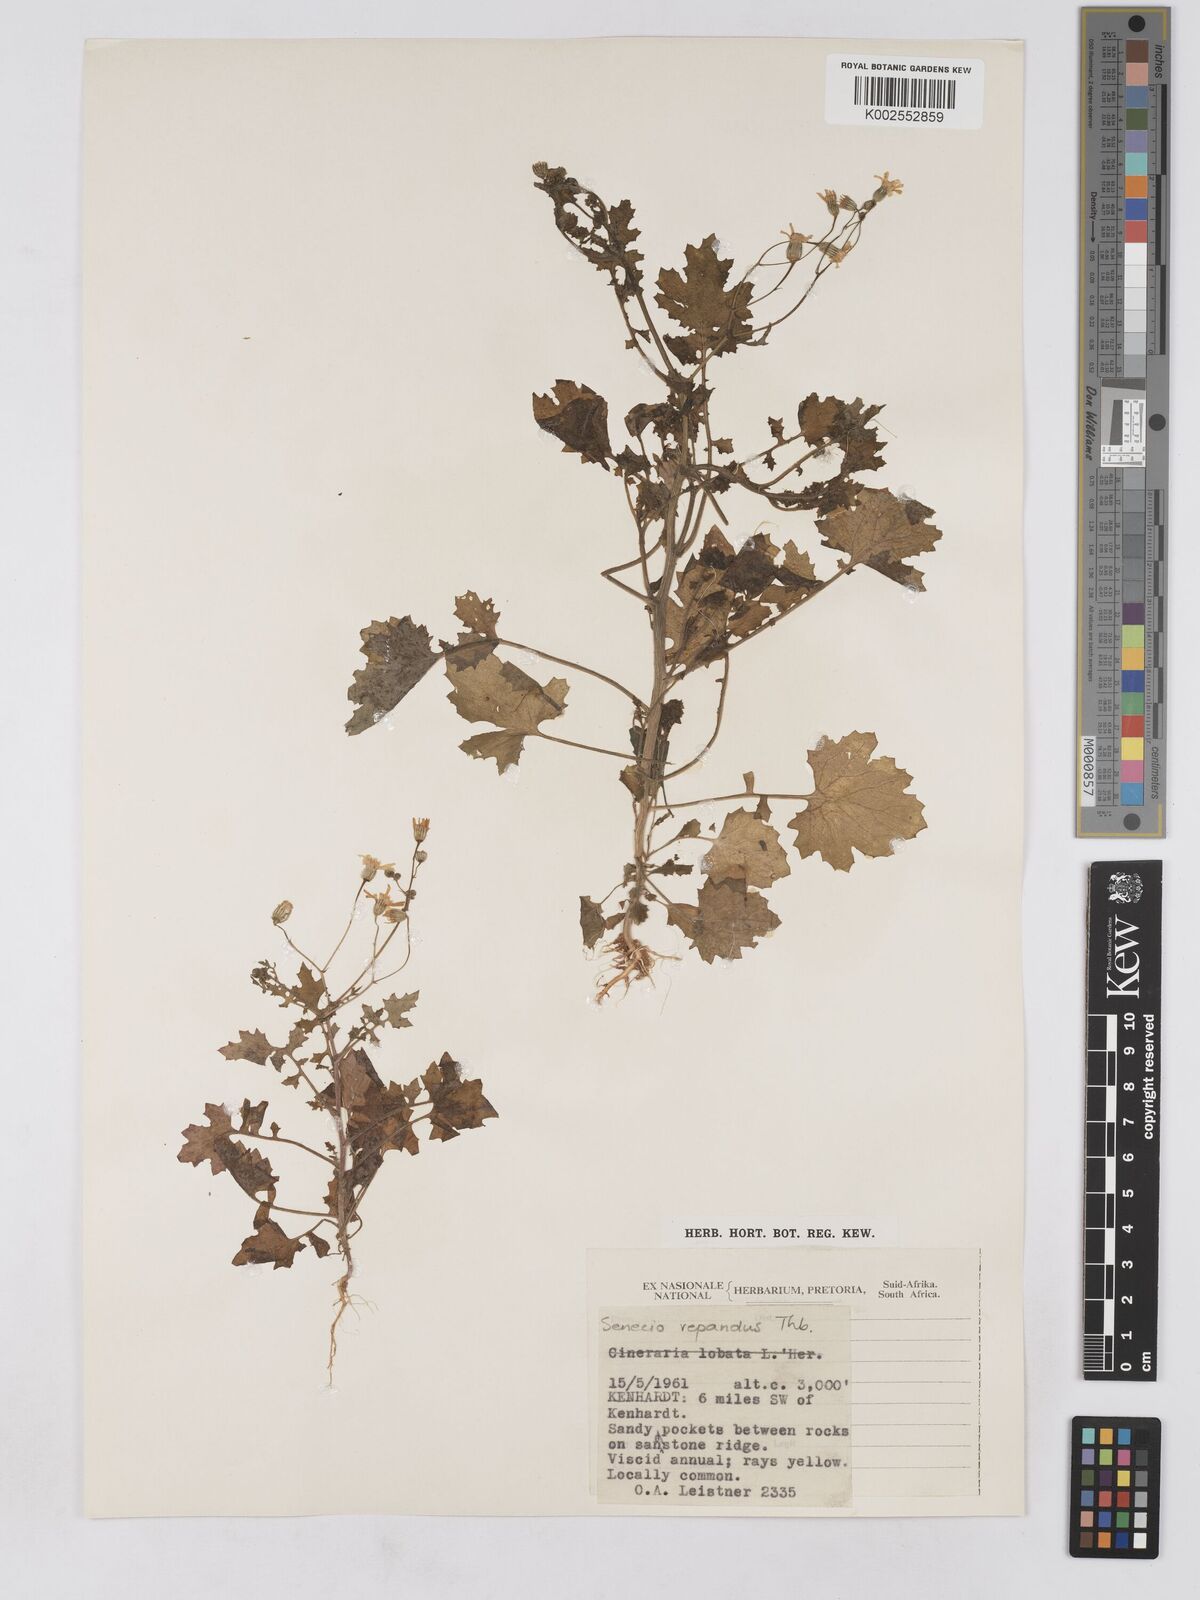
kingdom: Plantae
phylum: Tracheophyta
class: Magnoliopsida
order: Asterales
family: Asteraceae
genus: Senecio
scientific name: Senecio repandus
